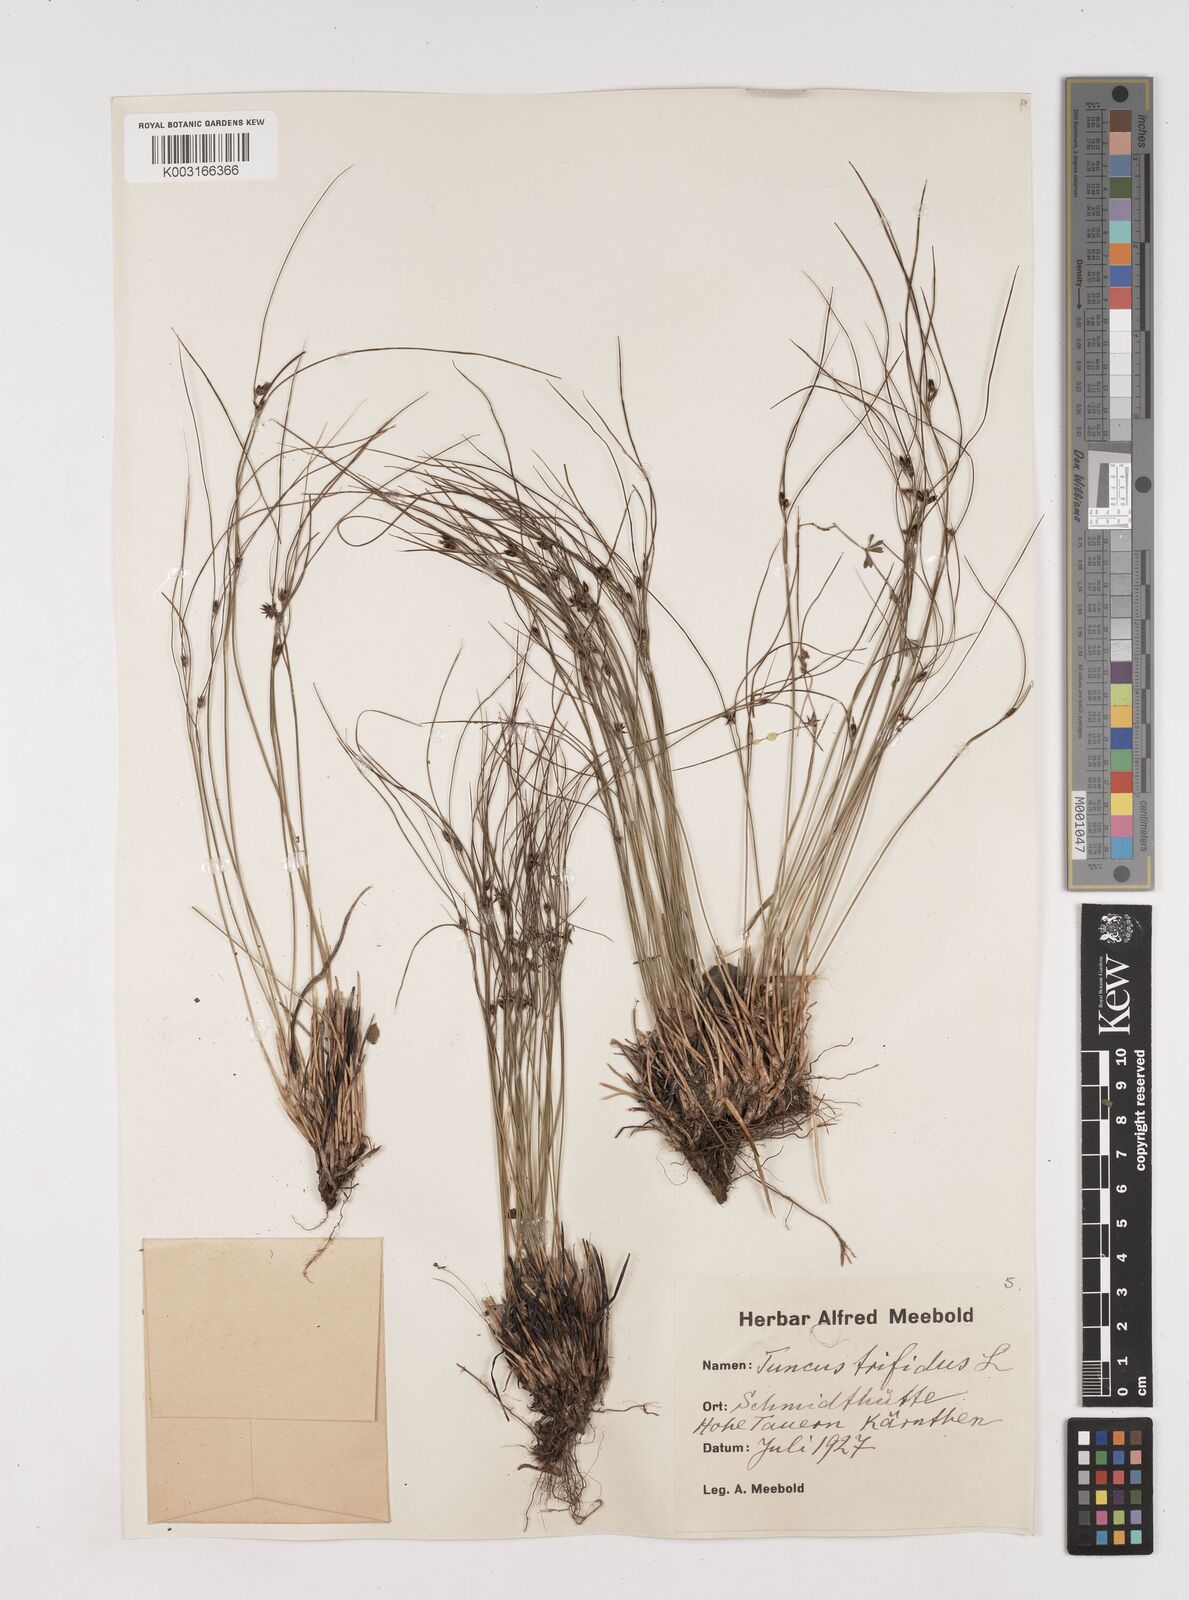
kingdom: Plantae
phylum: Tracheophyta
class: Liliopsida
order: Poales
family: Juncaceae
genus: Oreojuncus
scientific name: Oreojuncus trifidus
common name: Highland rush
